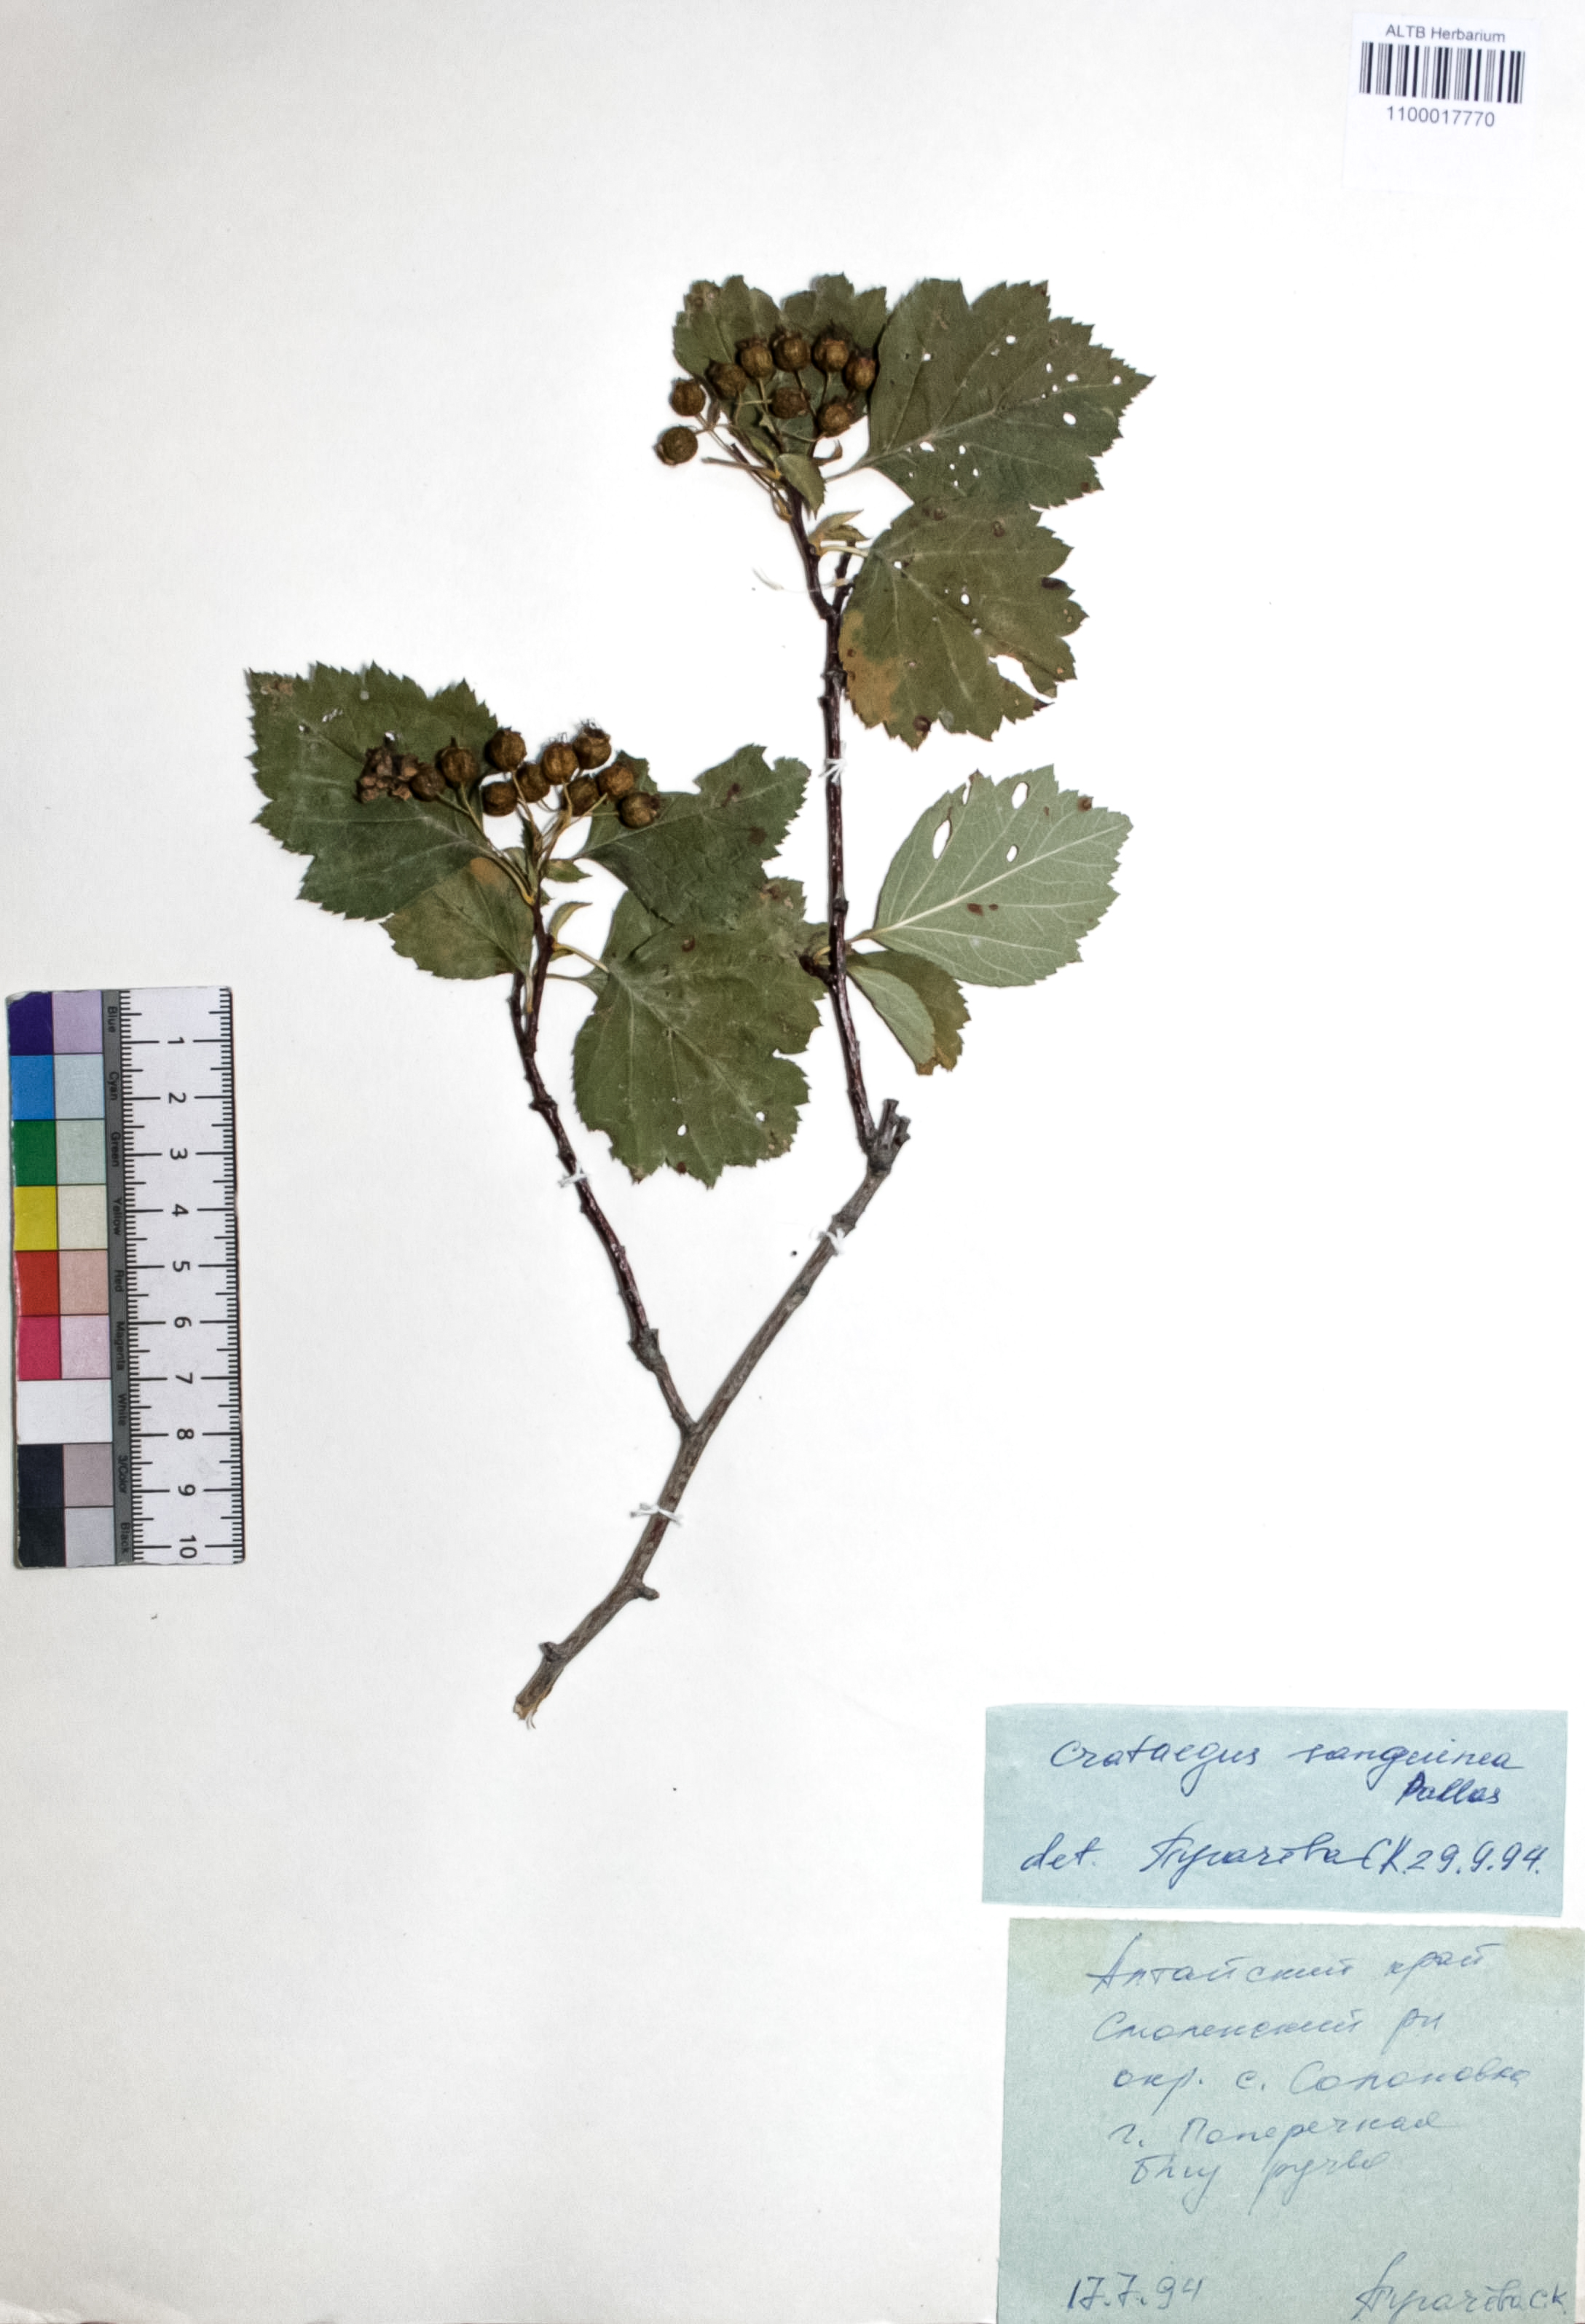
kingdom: Plantae
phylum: Tracheophyta
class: Magnoliopsida
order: Rosales
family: Rosaceae
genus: Crataegus
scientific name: Crataegus sanguinea
